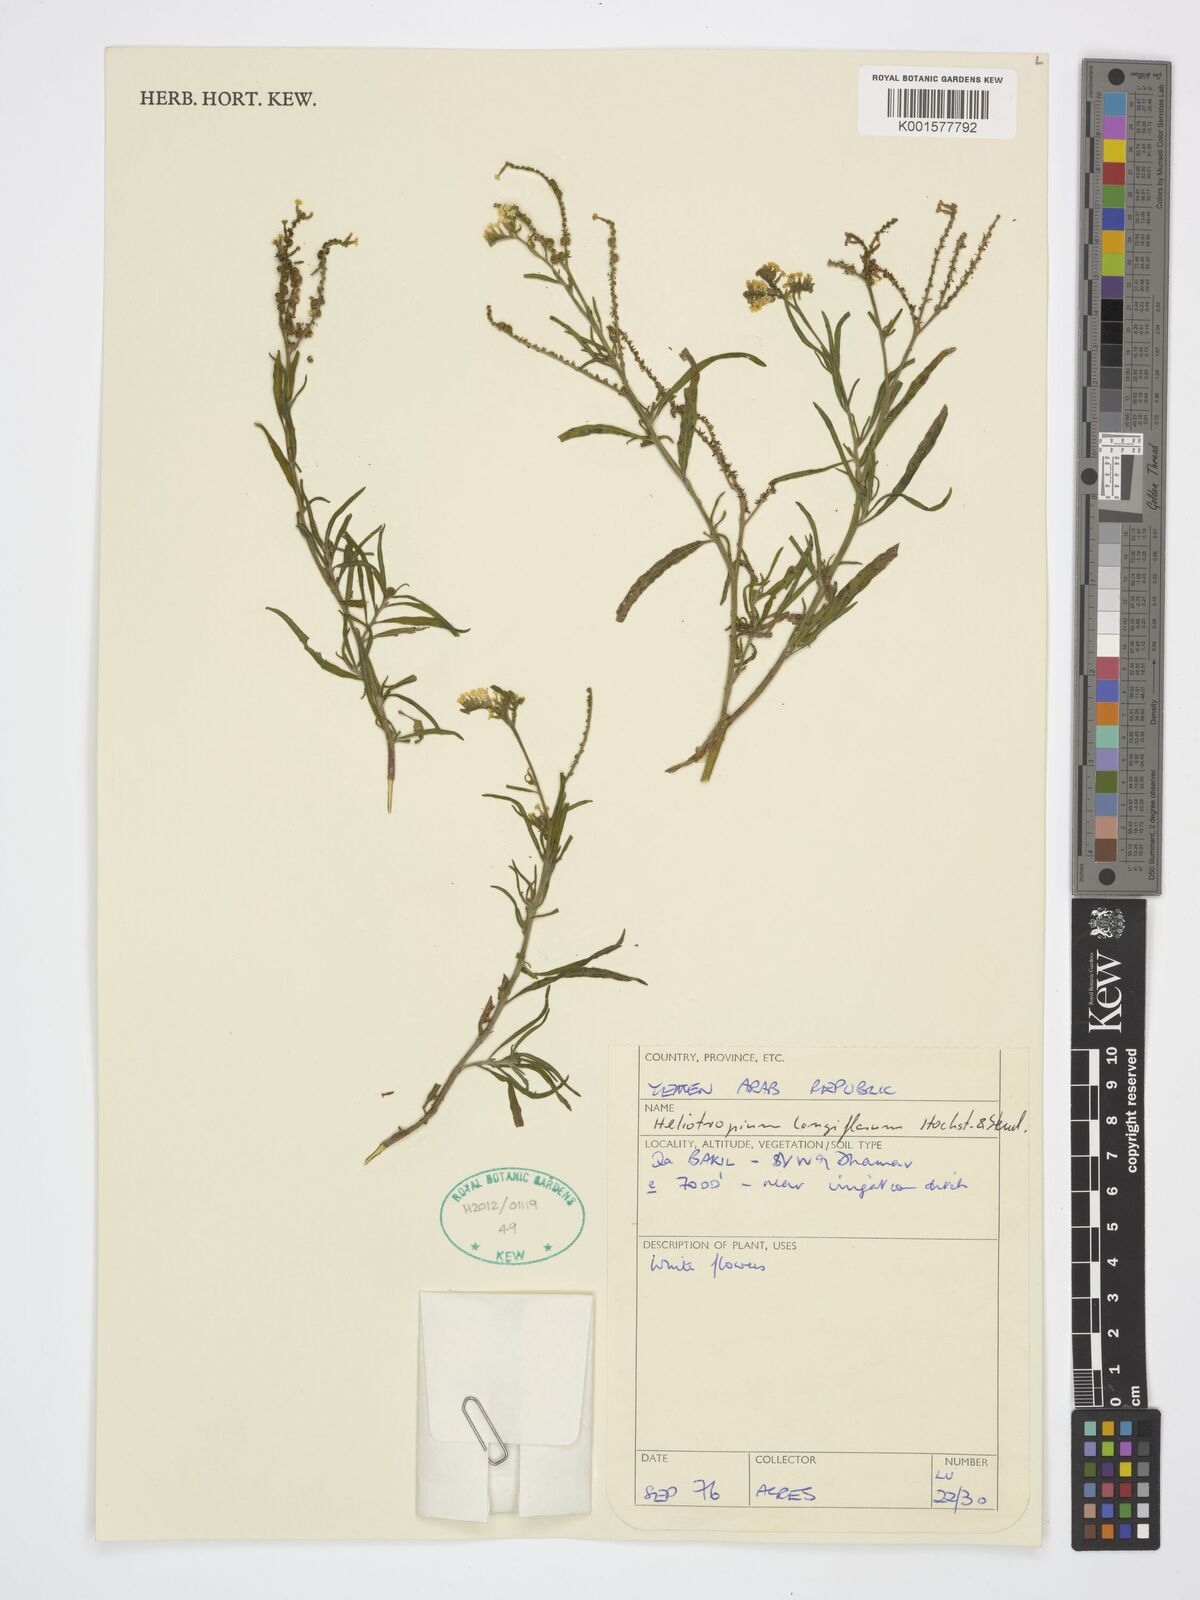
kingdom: Plantae
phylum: Tracheophyta
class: Magnoliopsida
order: Boraginales
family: Heliotropiaceae
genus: Heliotropium
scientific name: Heliotropium longiflorum
